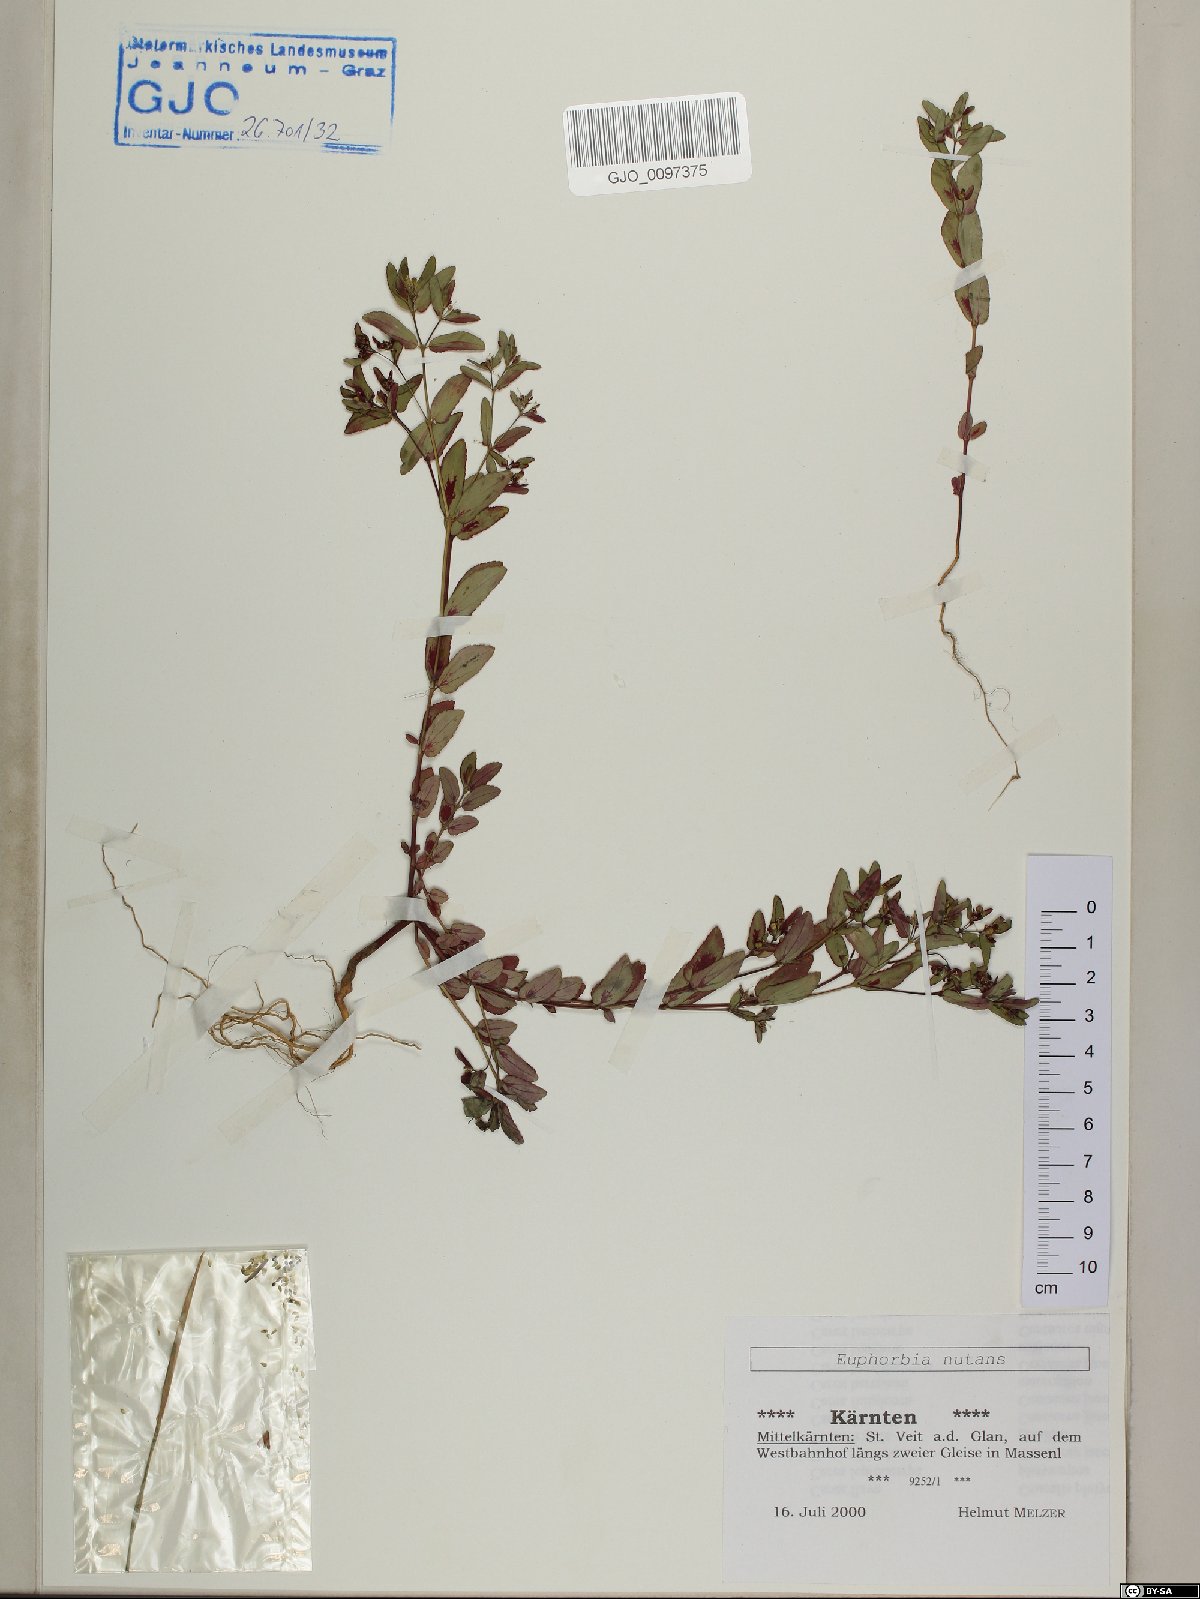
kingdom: Plantae
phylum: Tracheophyta
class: Magnoliopsida
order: Malpighiales
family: Euphorbiaceae
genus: Euphorbia
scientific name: Euphorbia nutans
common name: Eyebane
